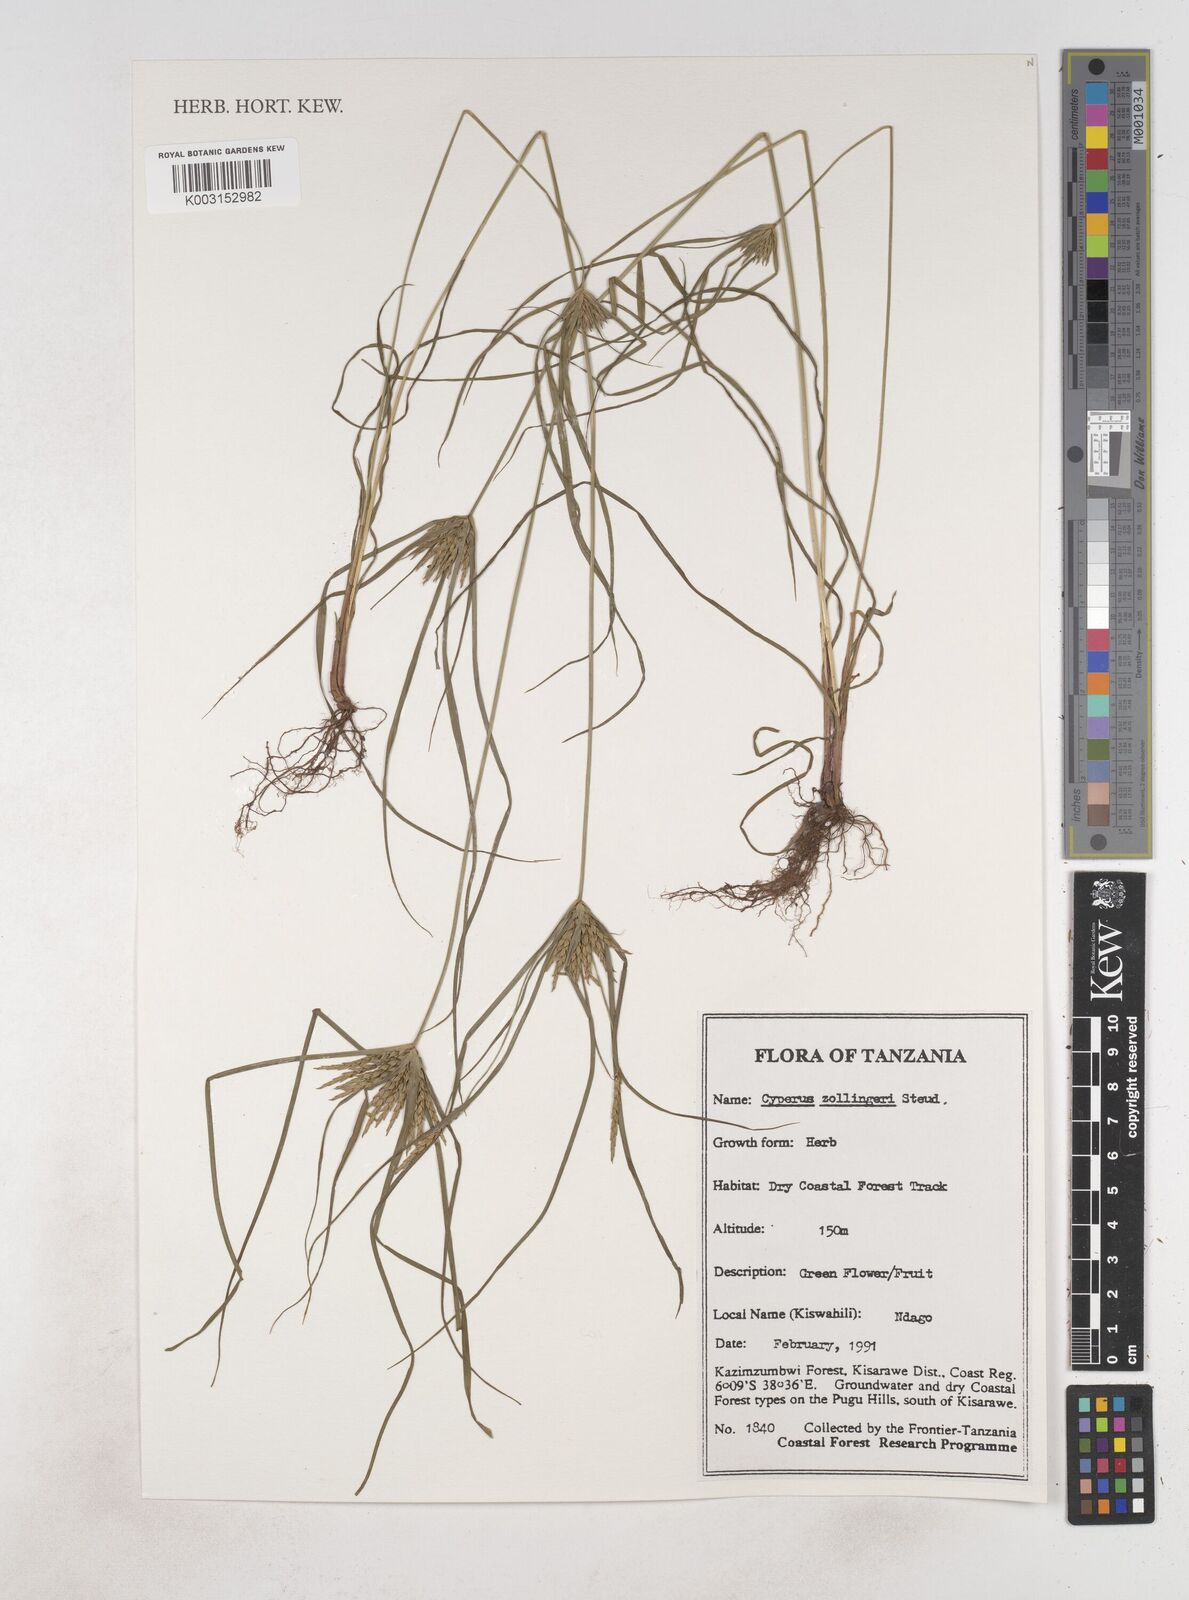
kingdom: Plantae
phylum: Tracheophyta
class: Liliopsida
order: Poales
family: Cyperaceae
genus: Cyperus
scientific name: Cyperus zollingeri
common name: Roadside flatsedge
